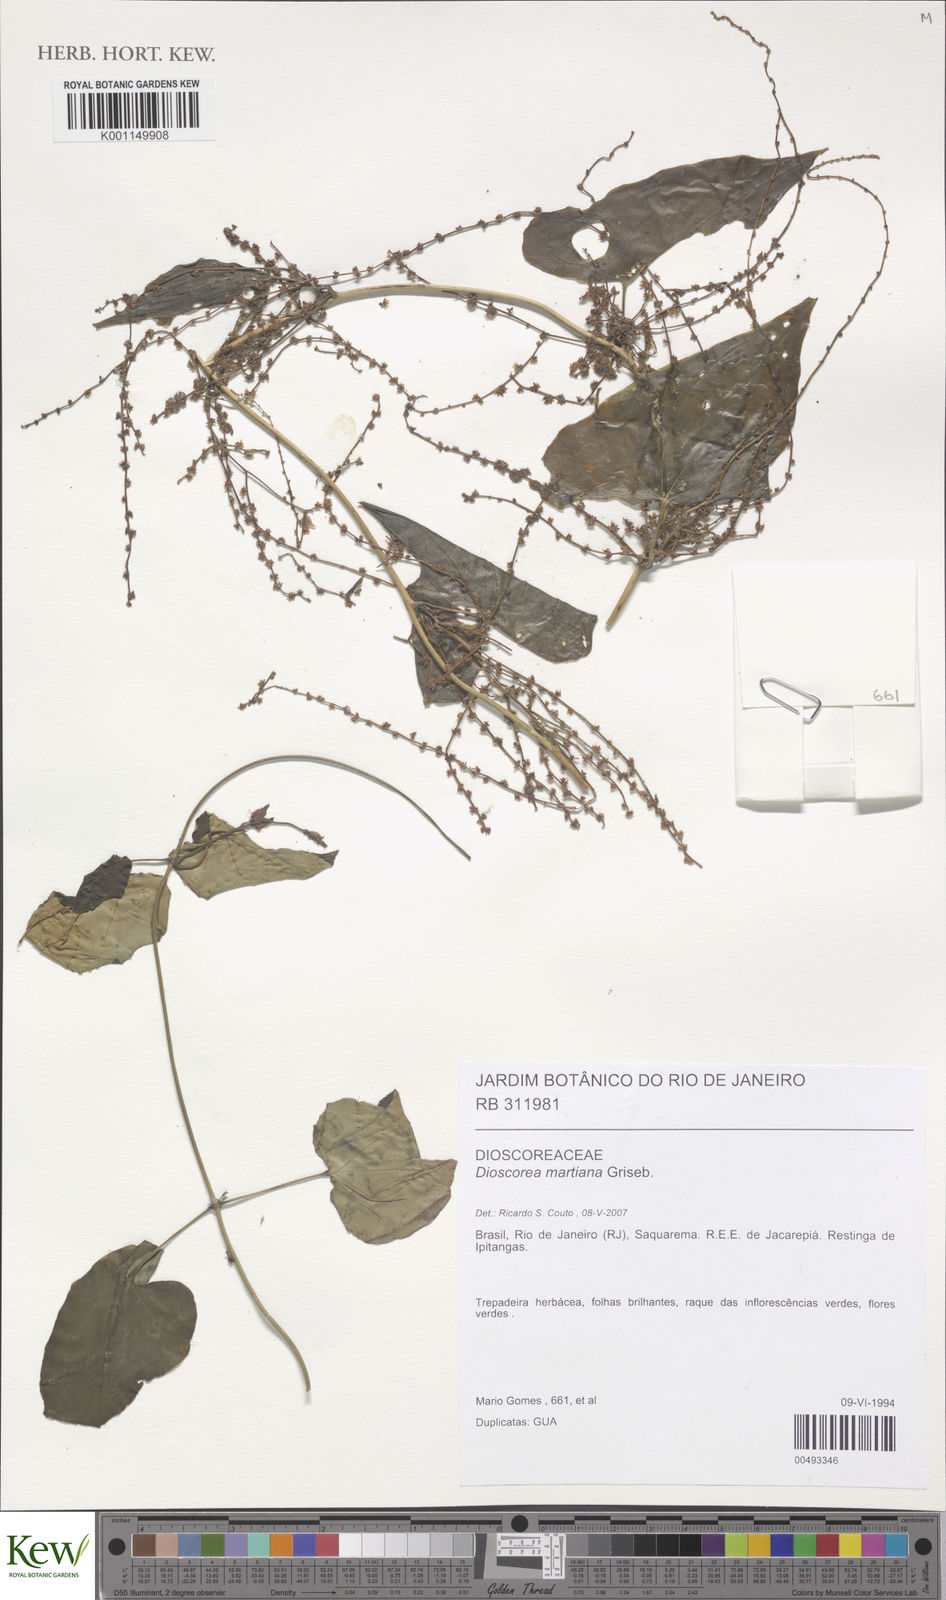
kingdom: Plantae
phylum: Tracheophyta
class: Liliopsida
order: Dioscoreales
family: Dioscoreaceae
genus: Dioscorea
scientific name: Dioscorea martiana
